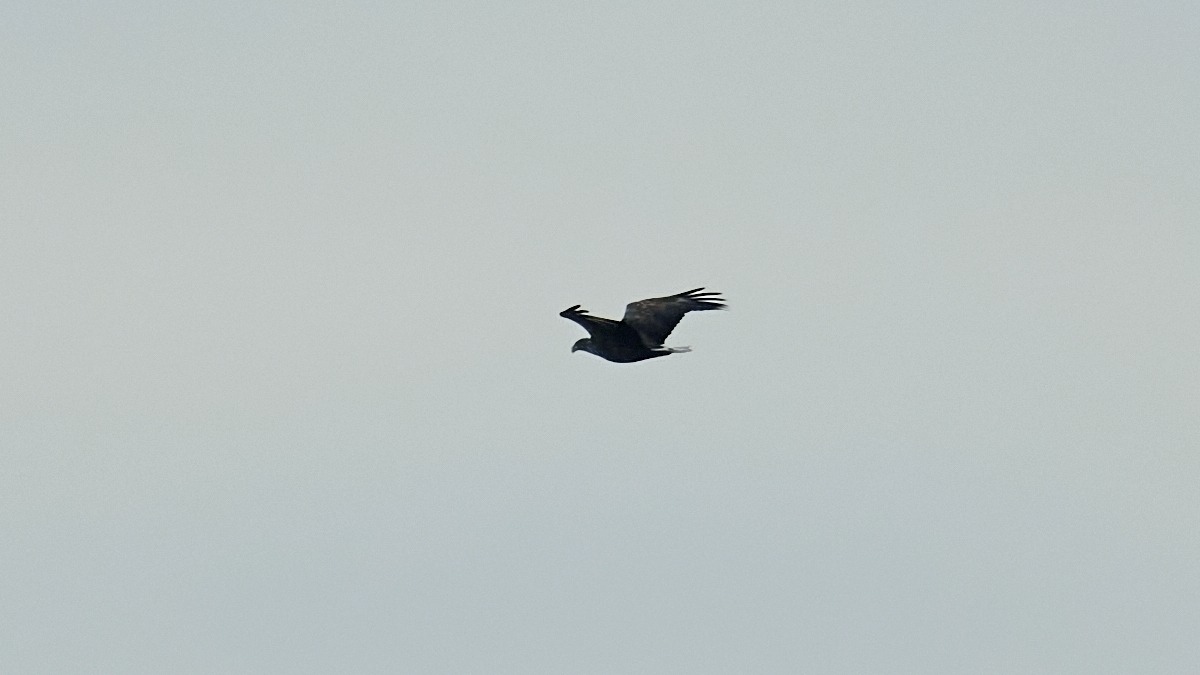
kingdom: Animalia
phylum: Chordata
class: Aves
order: Accipitriformes
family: Accipitridae
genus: Haliaeetus
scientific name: Haliaeetus albicilla
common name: Havørn
